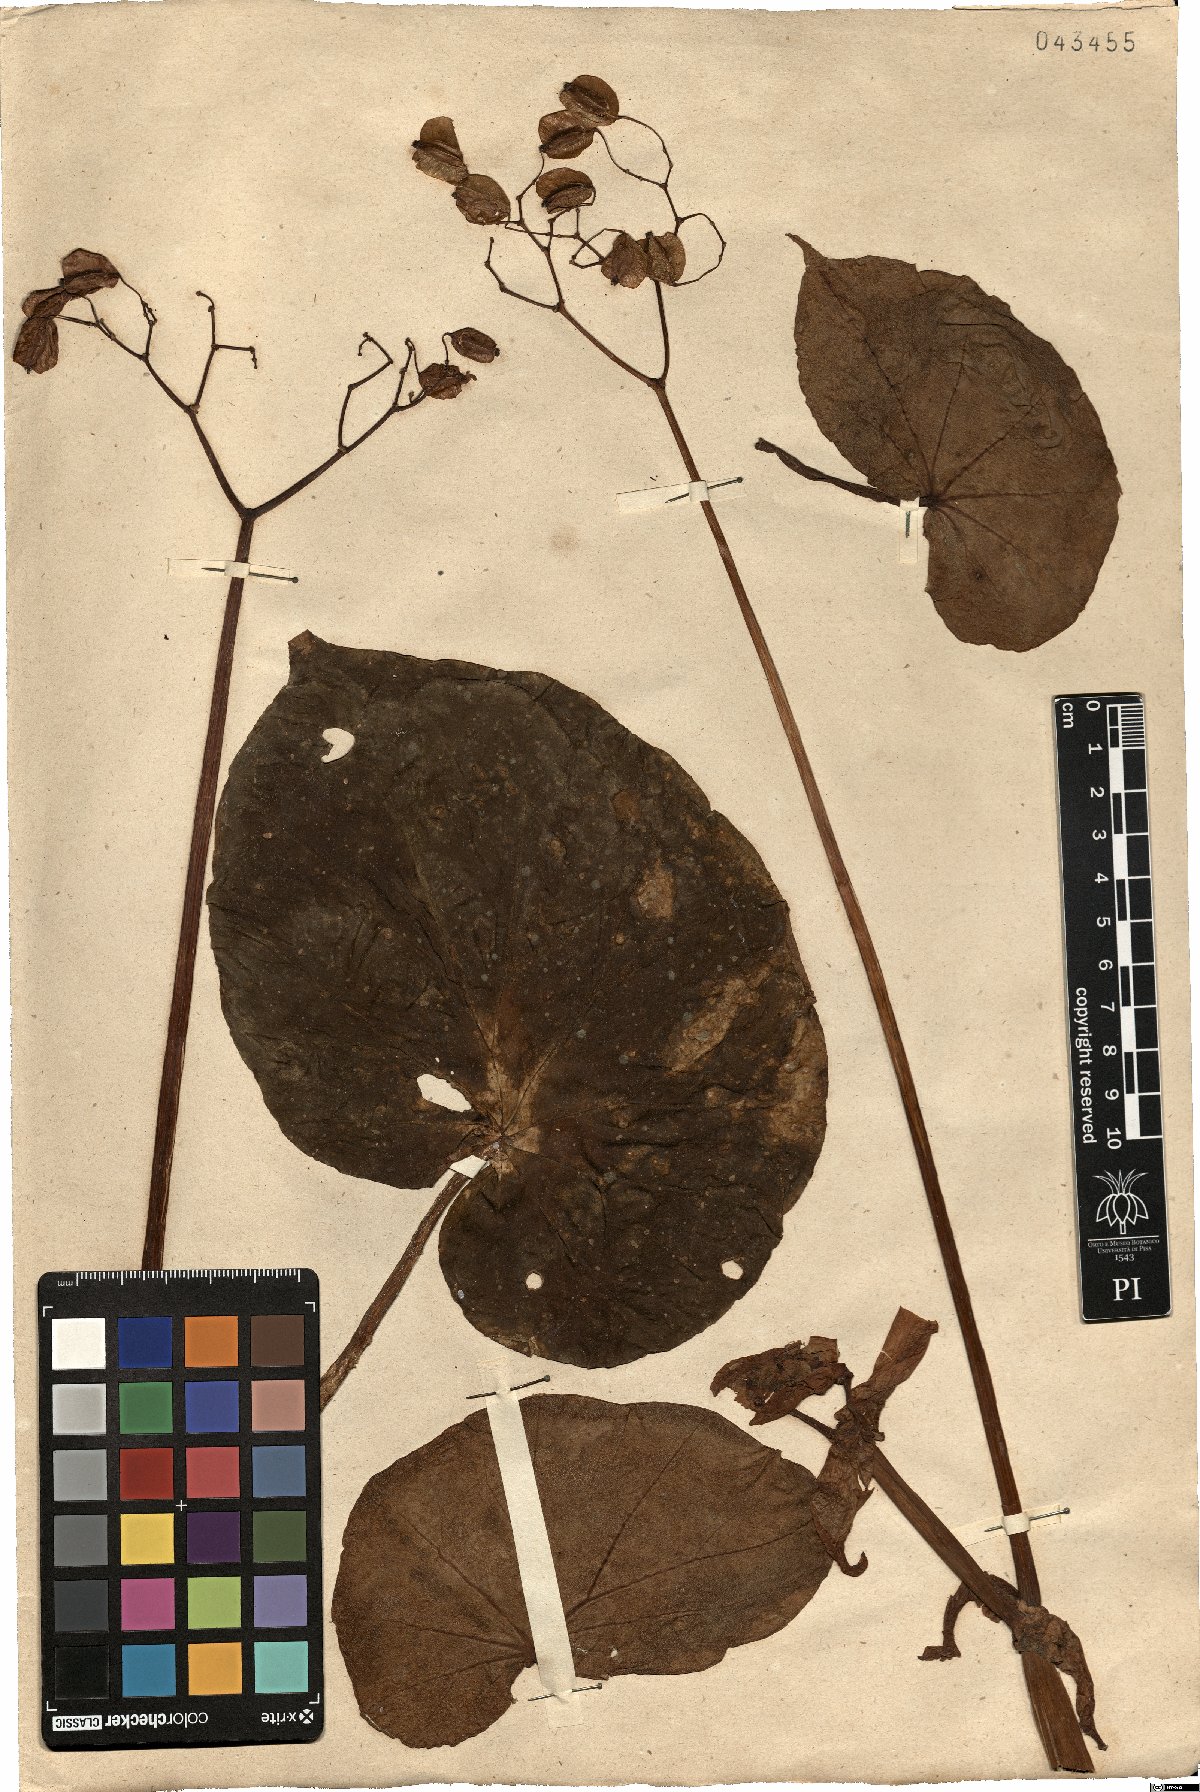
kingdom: Plantae
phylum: Tracheophyta
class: Magnoliopsida
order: Cucurbitales
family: Begoniaceae
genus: Begonia
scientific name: Begonia sanguinea
